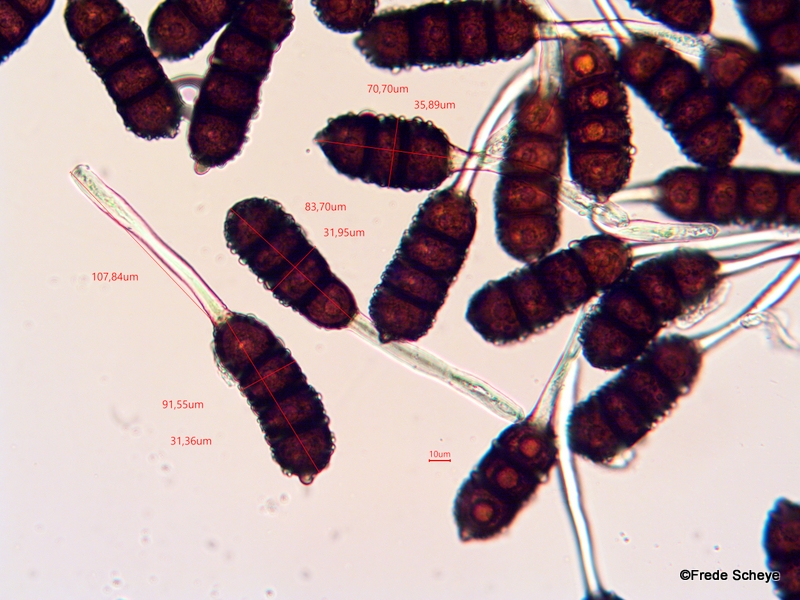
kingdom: Fungi
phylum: Basidiomycota
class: Pucciniomycetes
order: Pucciniales
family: Phragmidiaceae
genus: Phragmidium
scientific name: Phragmidium violaceum
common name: violet flercellerust
